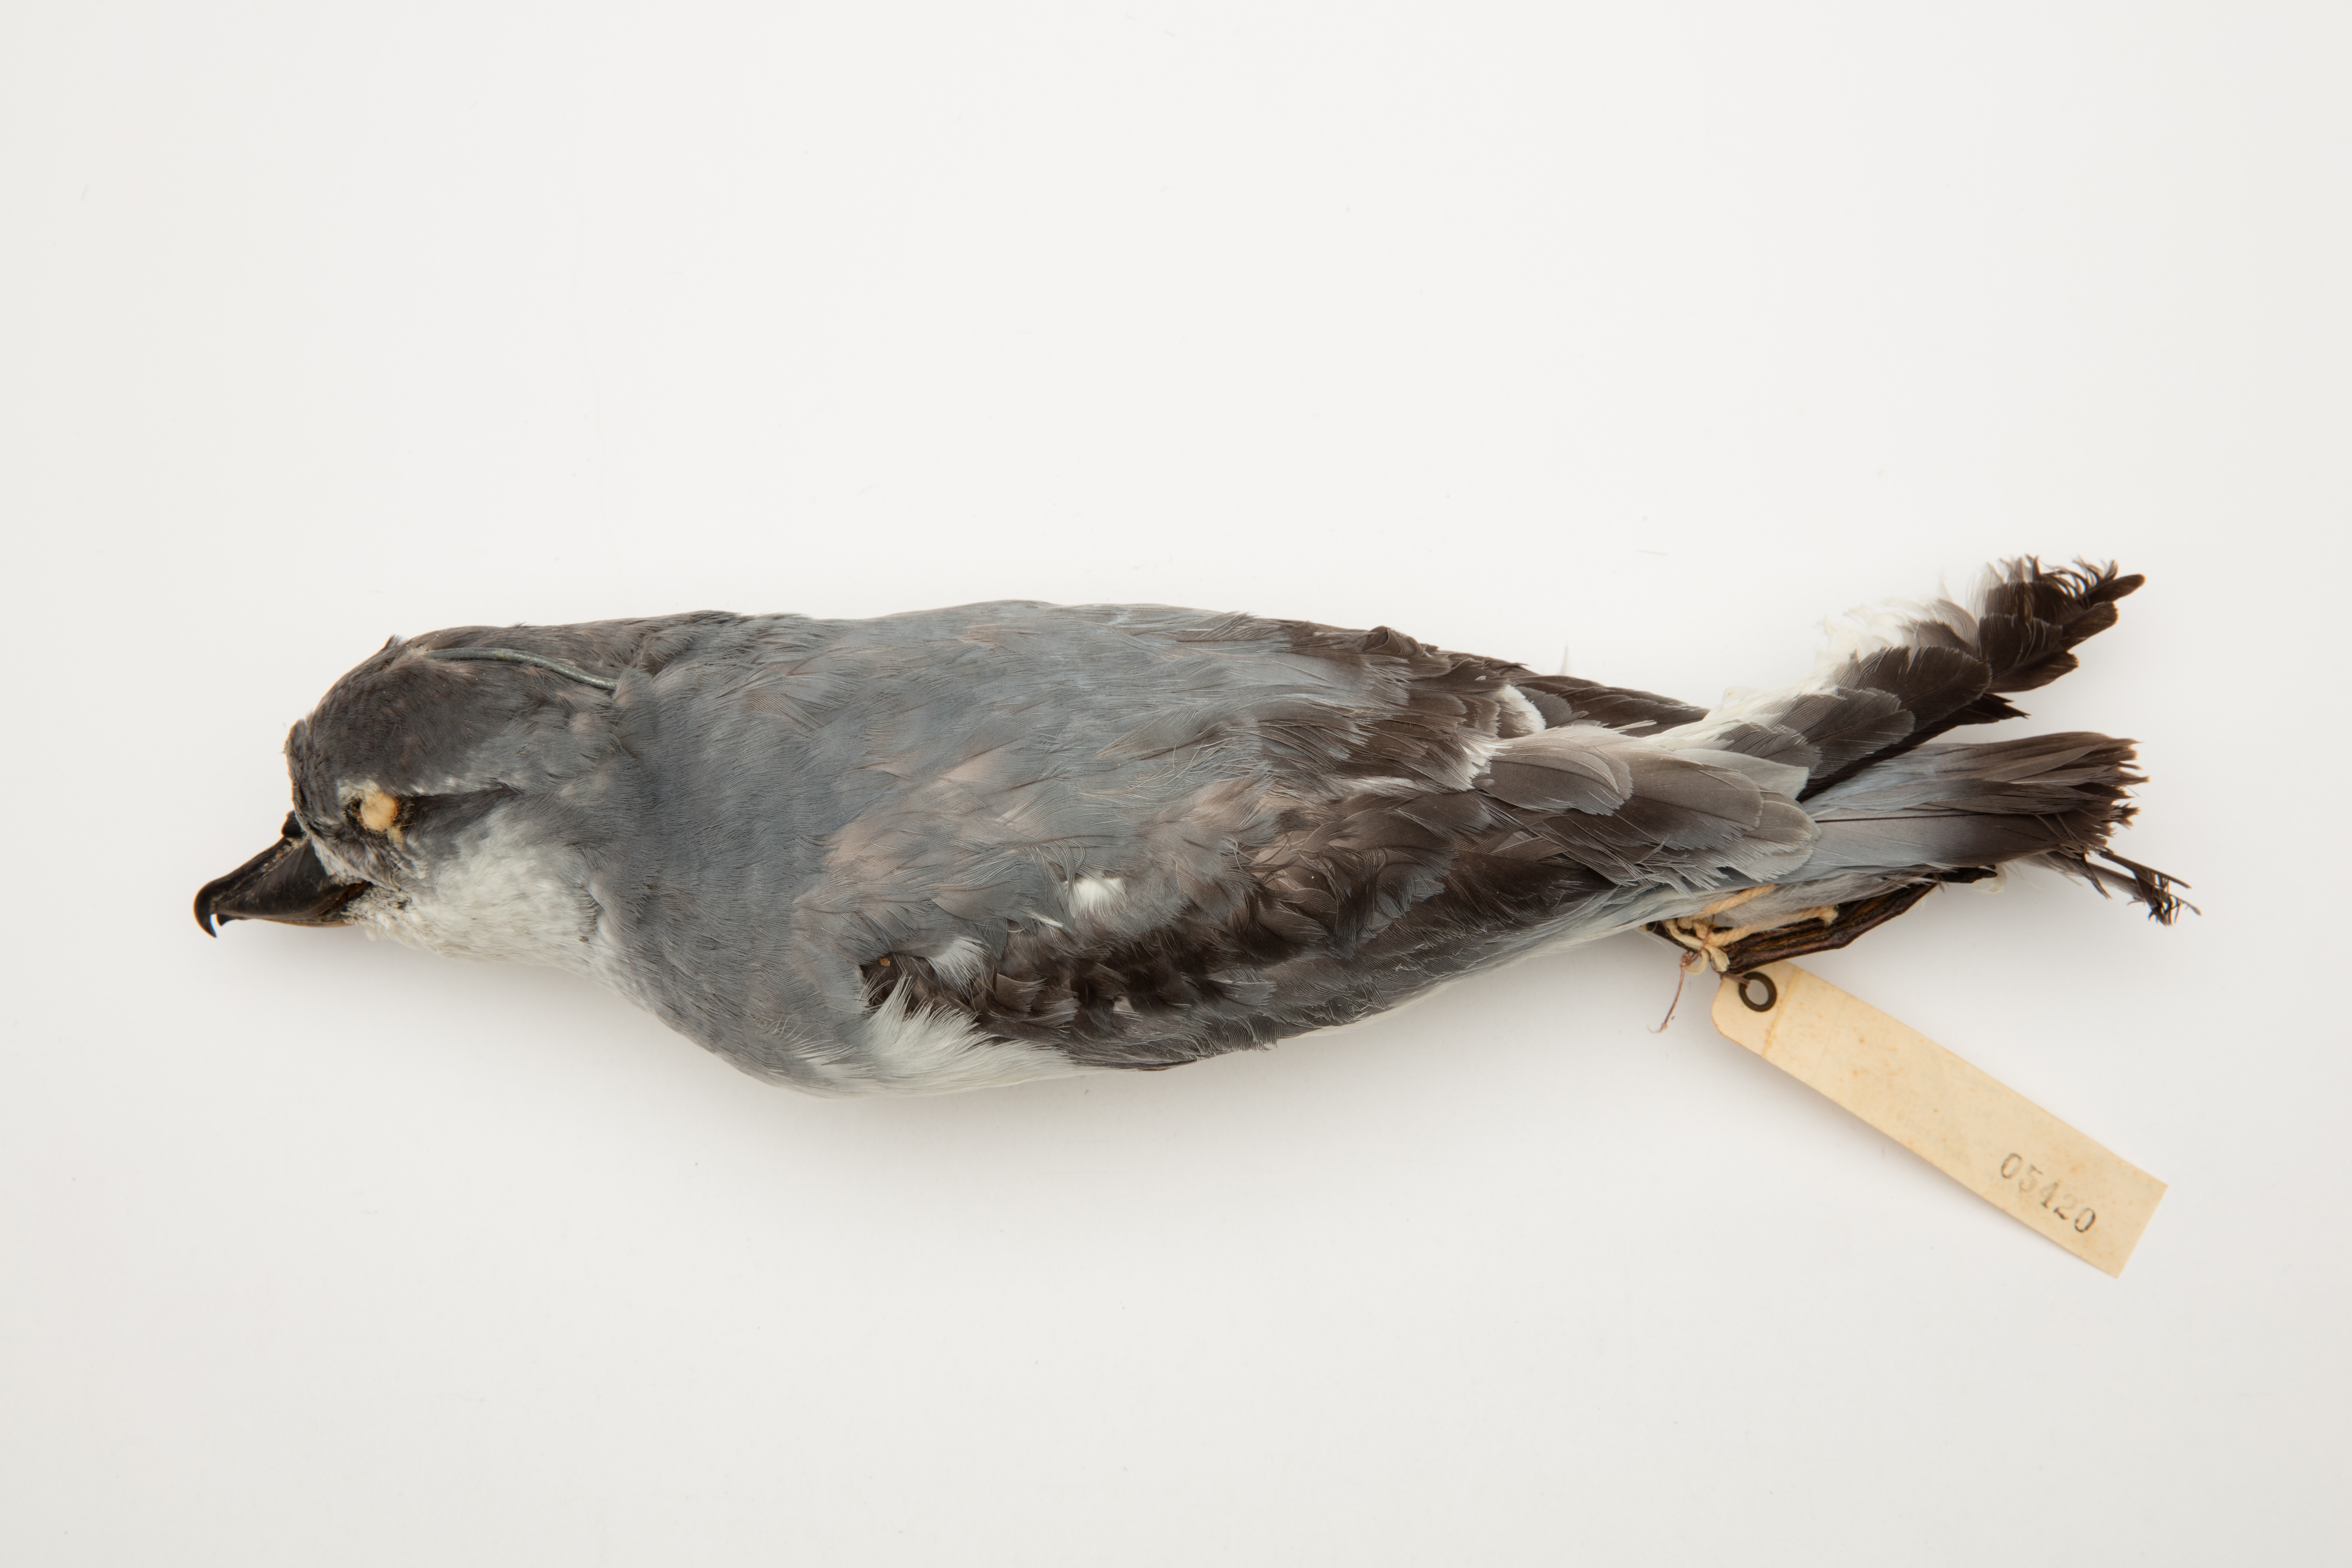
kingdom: Animalia
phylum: Chordata
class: Aves
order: Procellariiformes
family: Procellariidae
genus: Pachyptila
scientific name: Pachyptila vittata
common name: Broad-billed prion
